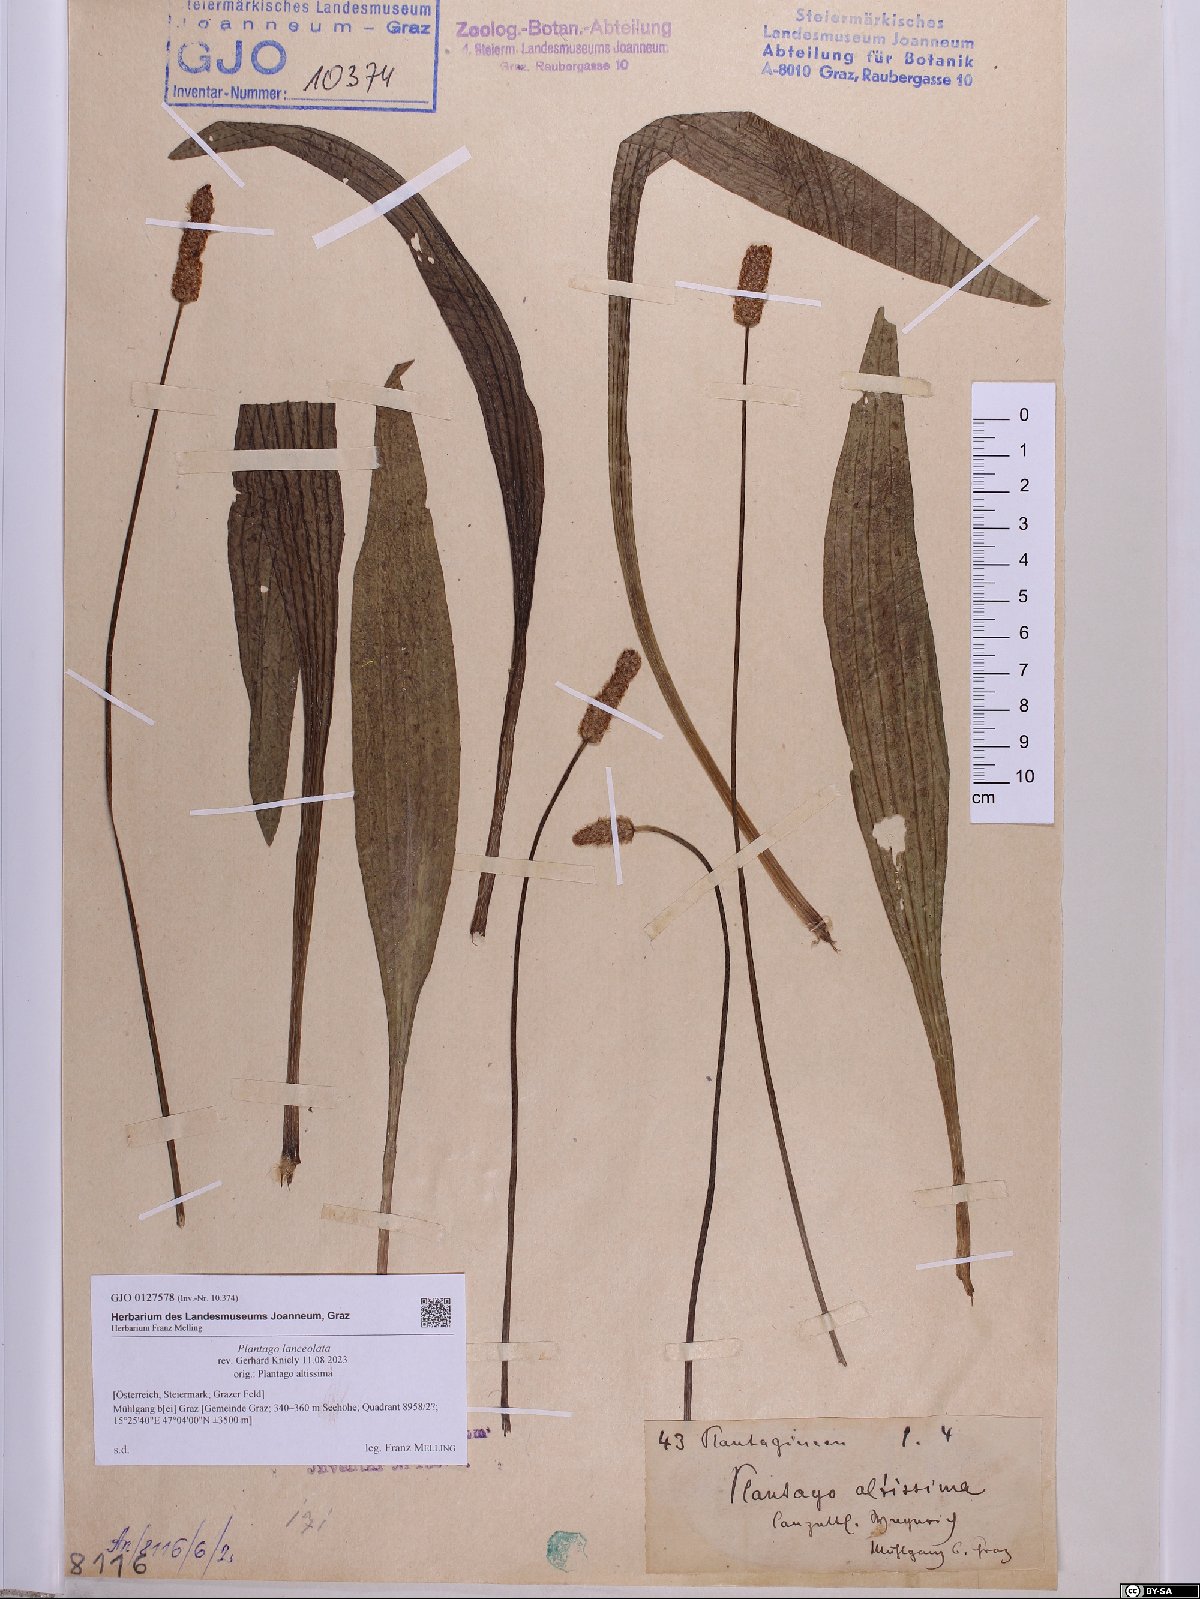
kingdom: Plantae
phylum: Tracheophyta
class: Magnoliopsida
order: Lamiales
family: Plantaginaceae
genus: Plantago
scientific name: Plantago lanceolata
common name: Ribwort plantain
